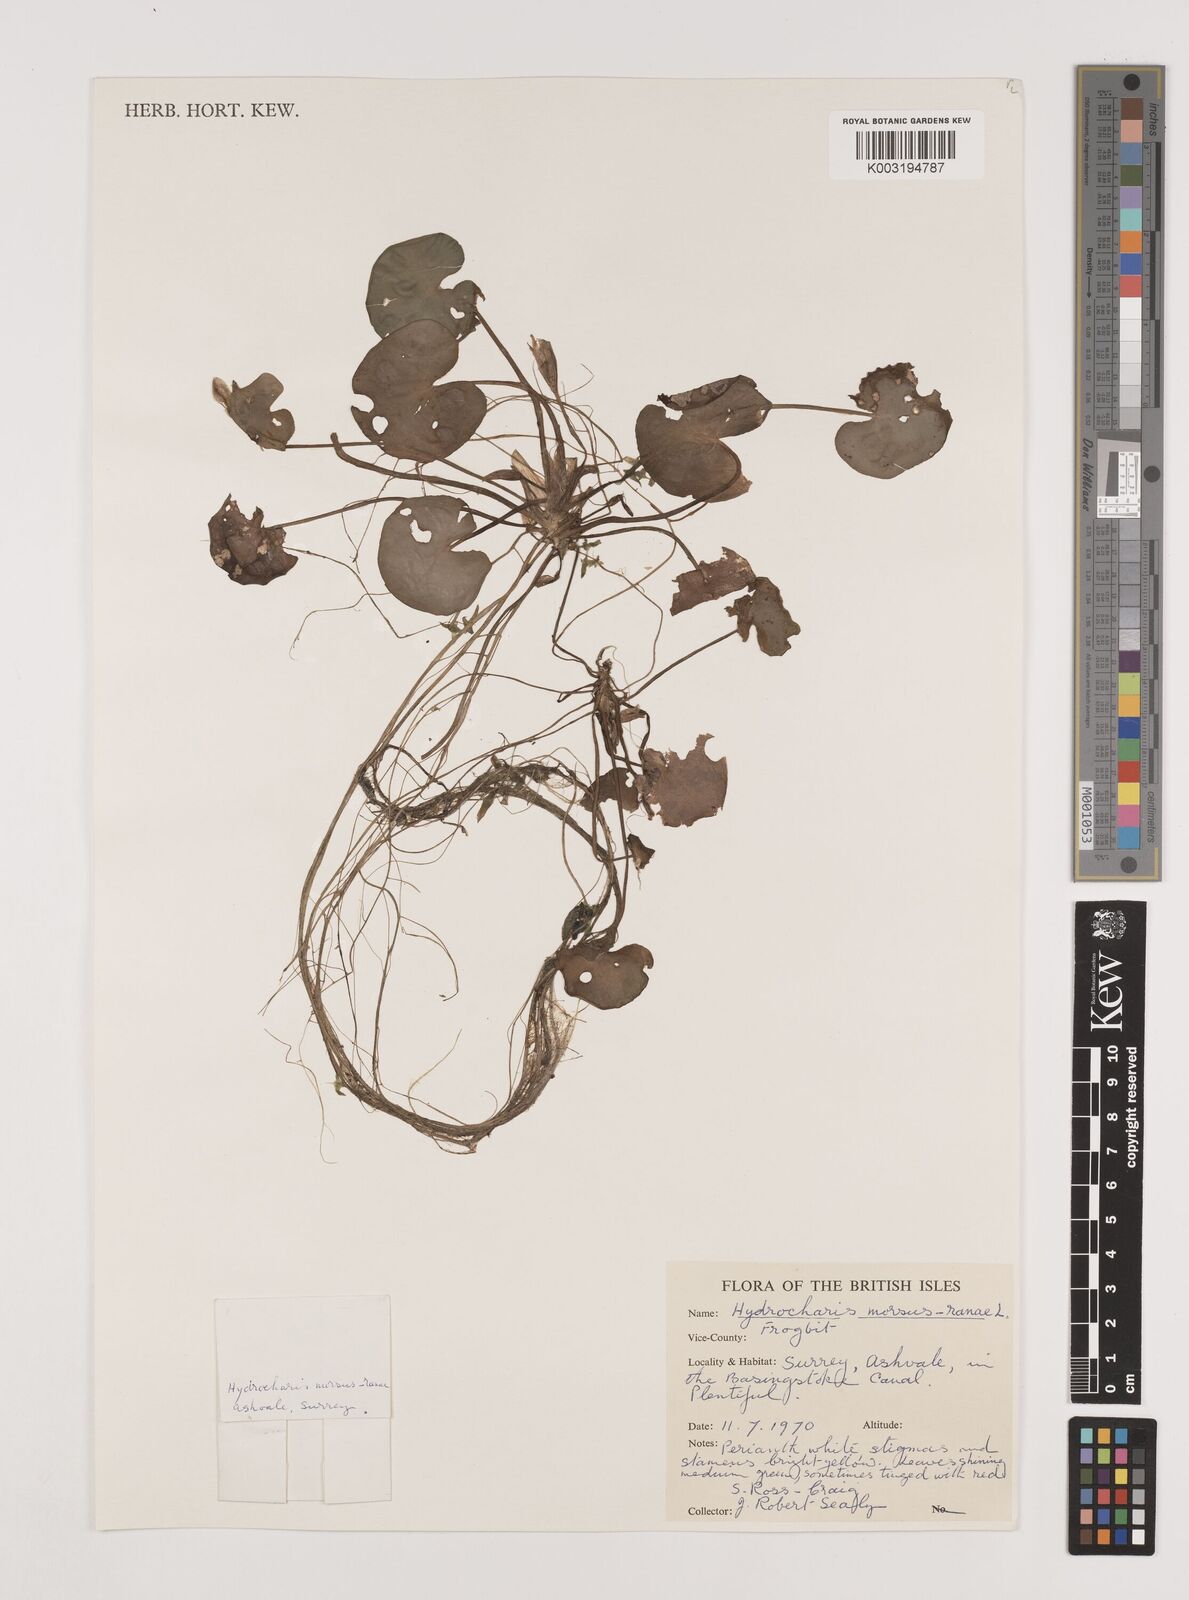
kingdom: Plantae
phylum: Tracheophyta
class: Liliopsida
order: Alismatales
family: Hydrocharitaceae
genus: Hydrocharis
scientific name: Hydrocharis morsus-ranae
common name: Frogbit
